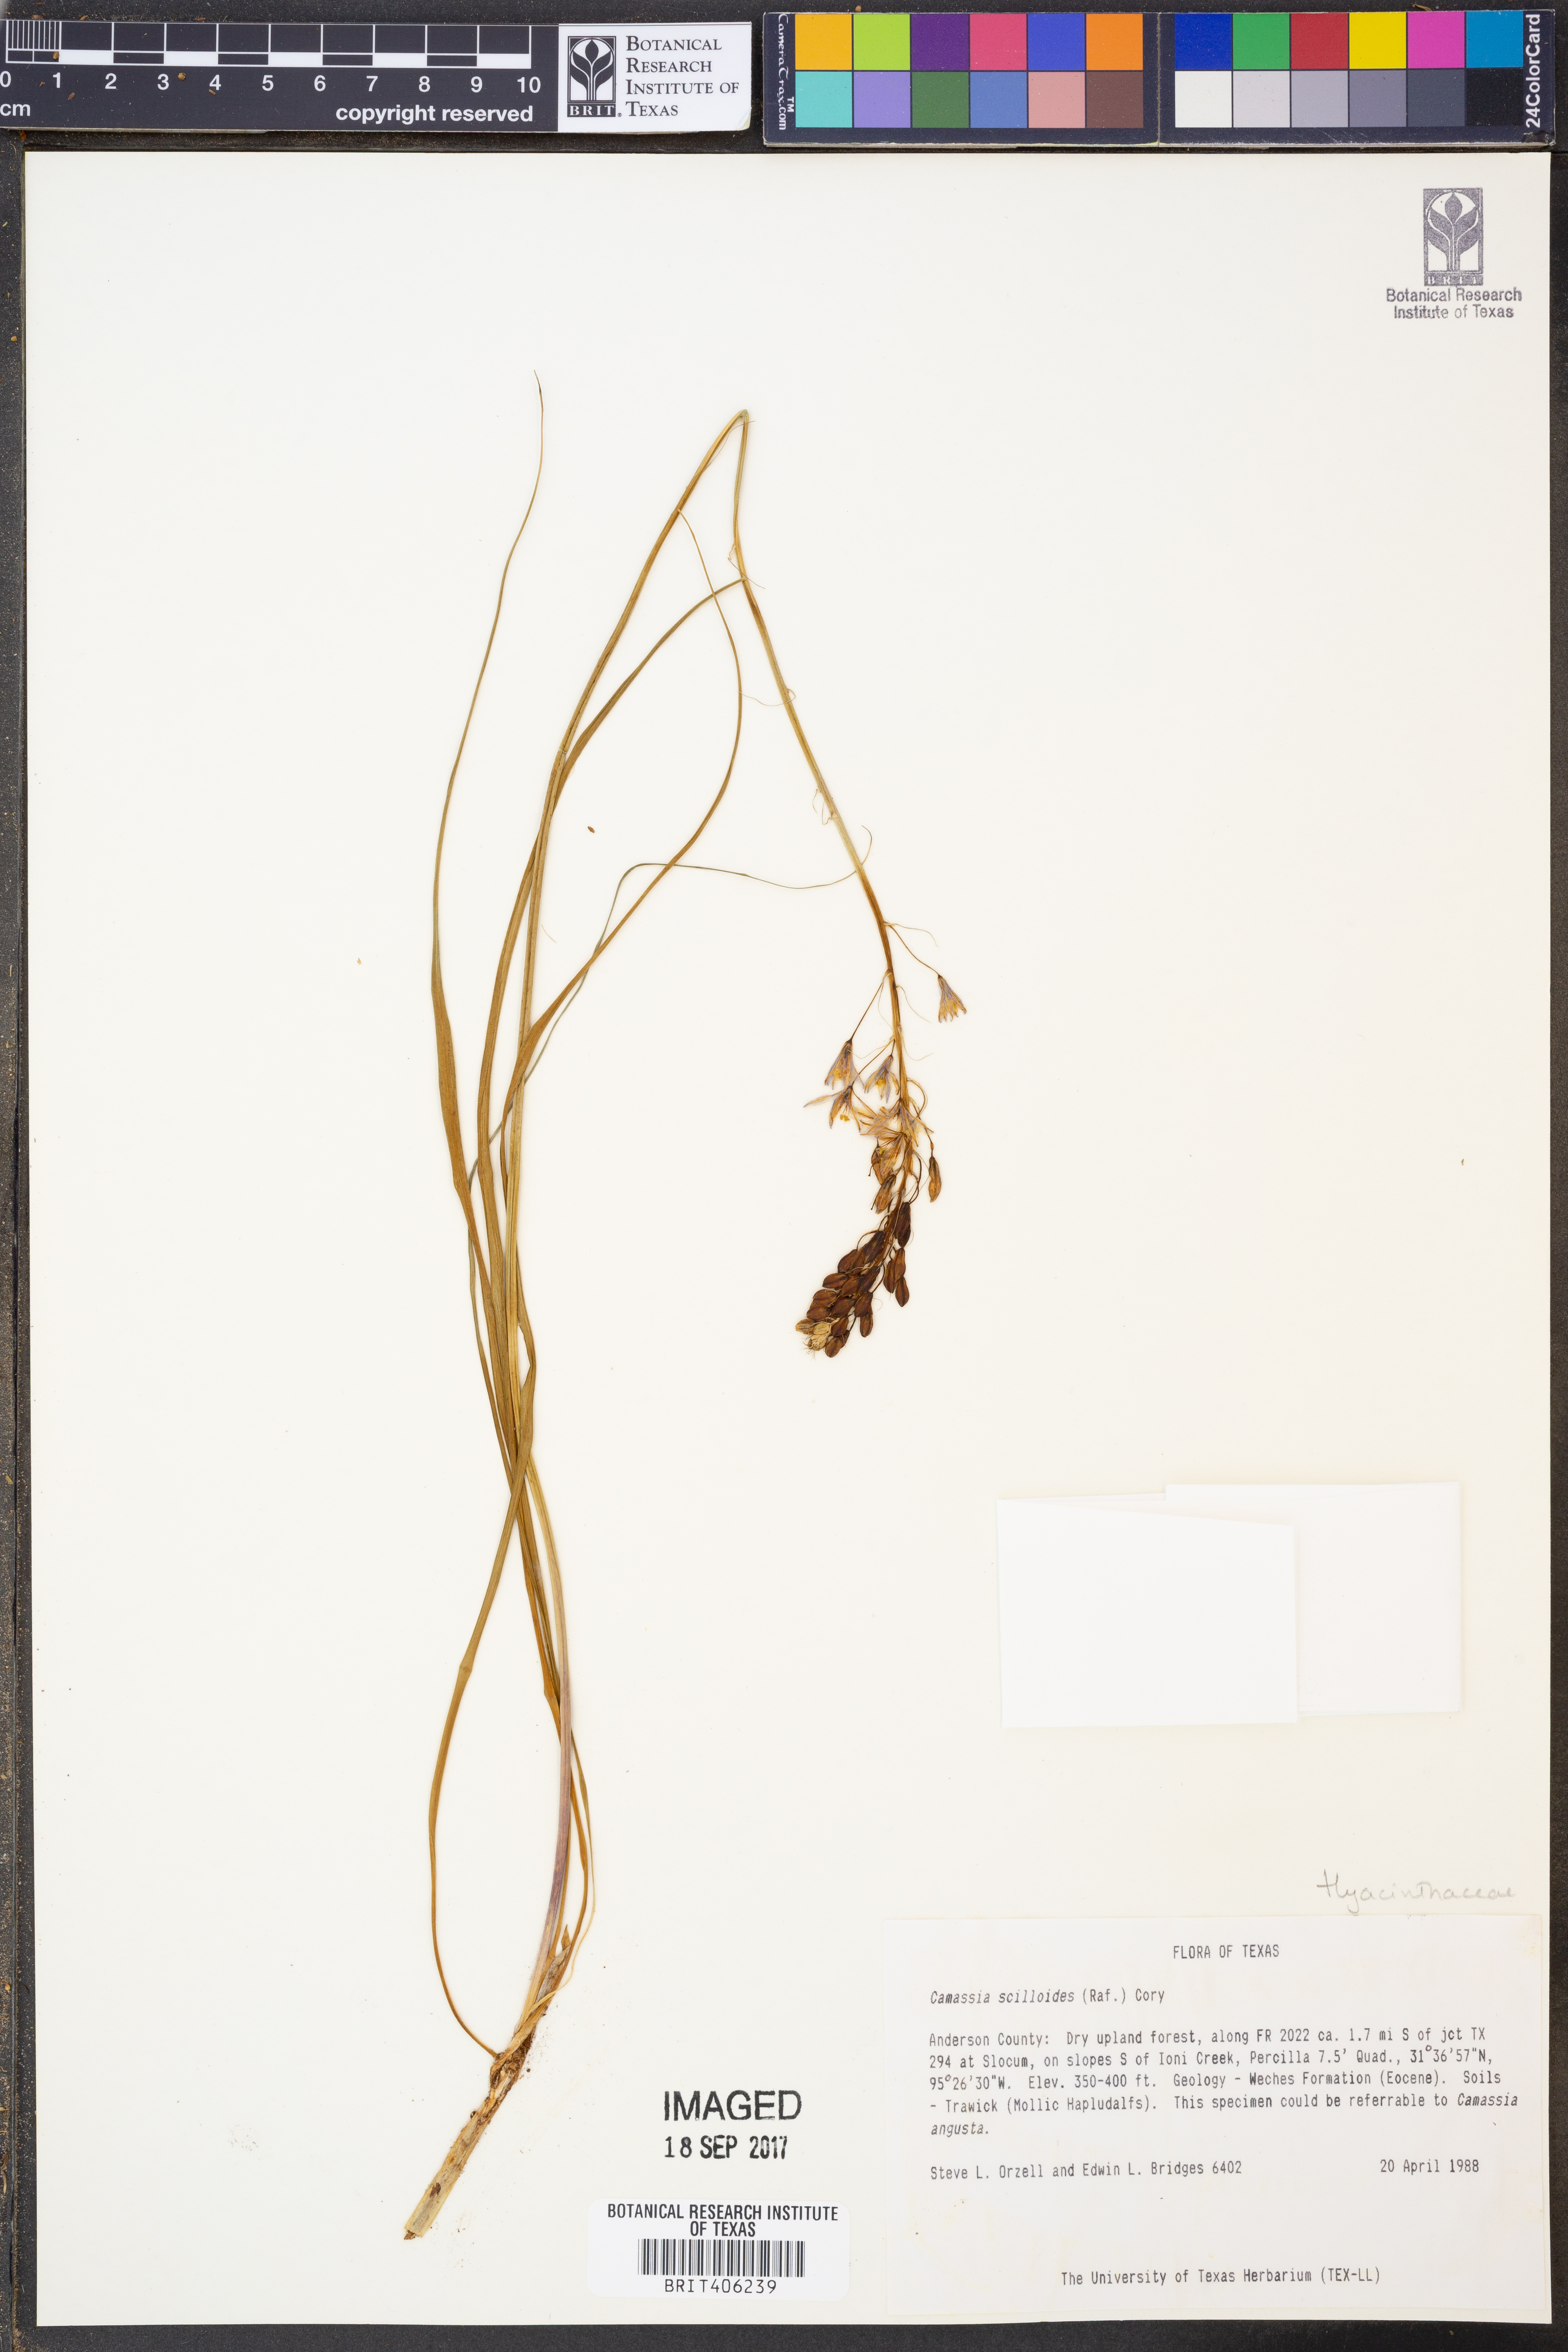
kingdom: Plantae
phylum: Tracheophyta
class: Liliopsida
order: Asparagales
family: Asparagaceae
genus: Camassia
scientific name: Camassia scilloides
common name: Wild hyacinth
